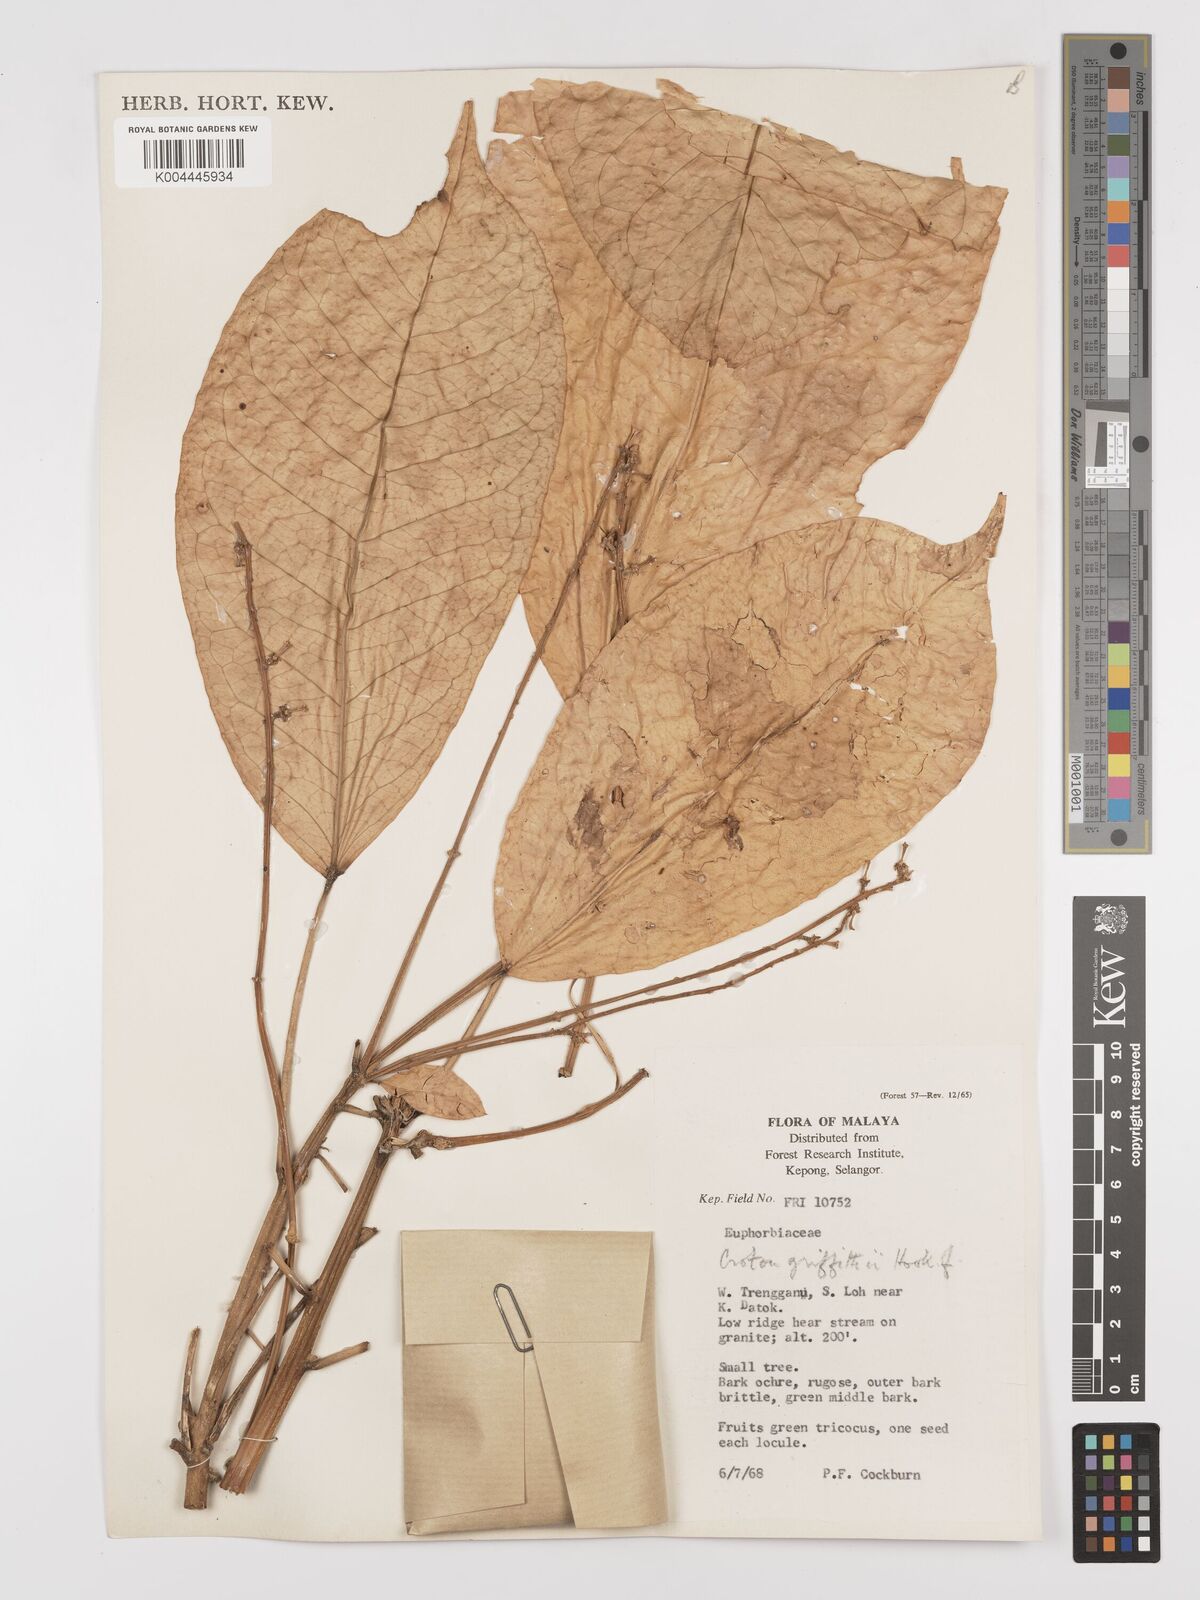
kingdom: Plantae
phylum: Tracheophyta
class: Magnoliopsida
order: Malpighiales
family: Euphorbiaceae
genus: Croton
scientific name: Croton griffithii
